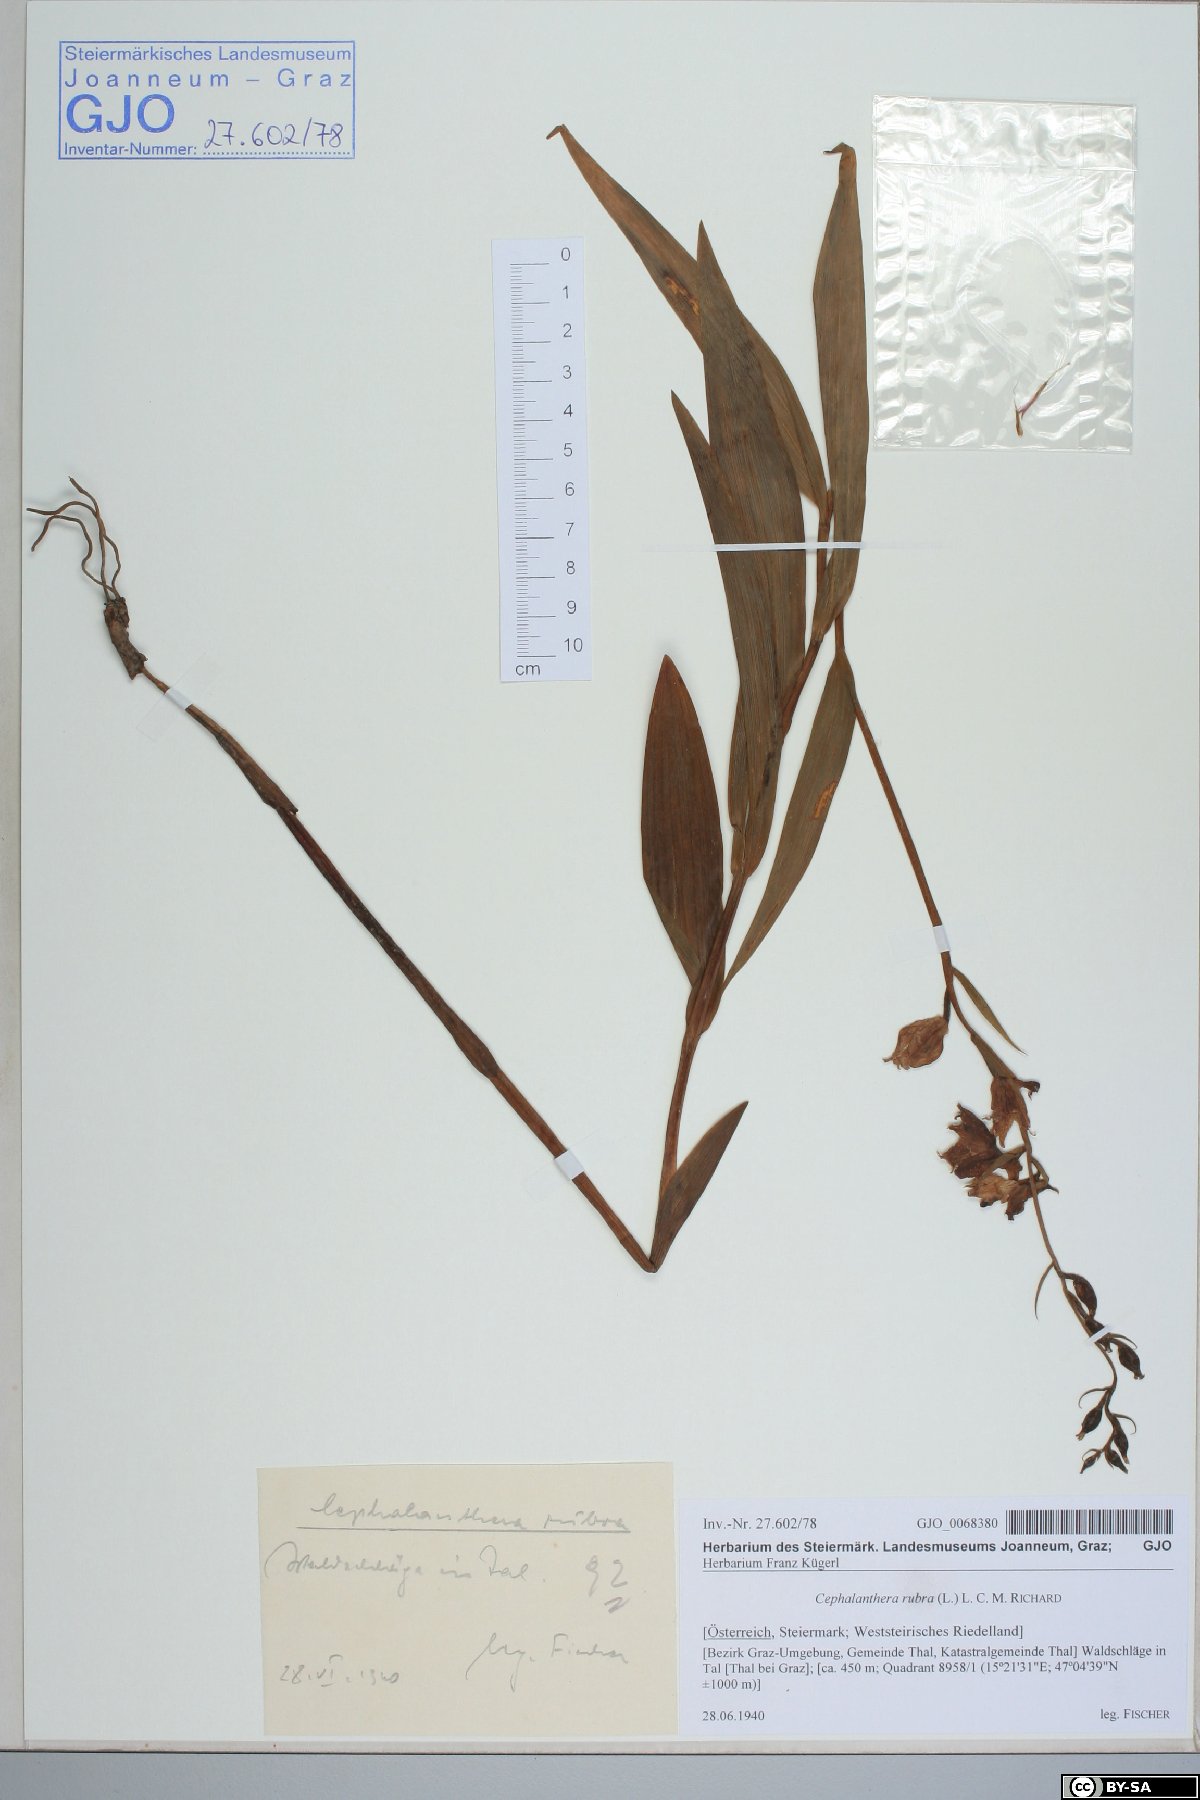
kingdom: Plantae
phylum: Tracheophyta
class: Liliopsida
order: Asparagales
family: Orchidaceae
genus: Cephalanthera
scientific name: Cephalanthera rubra
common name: Red helleborine
